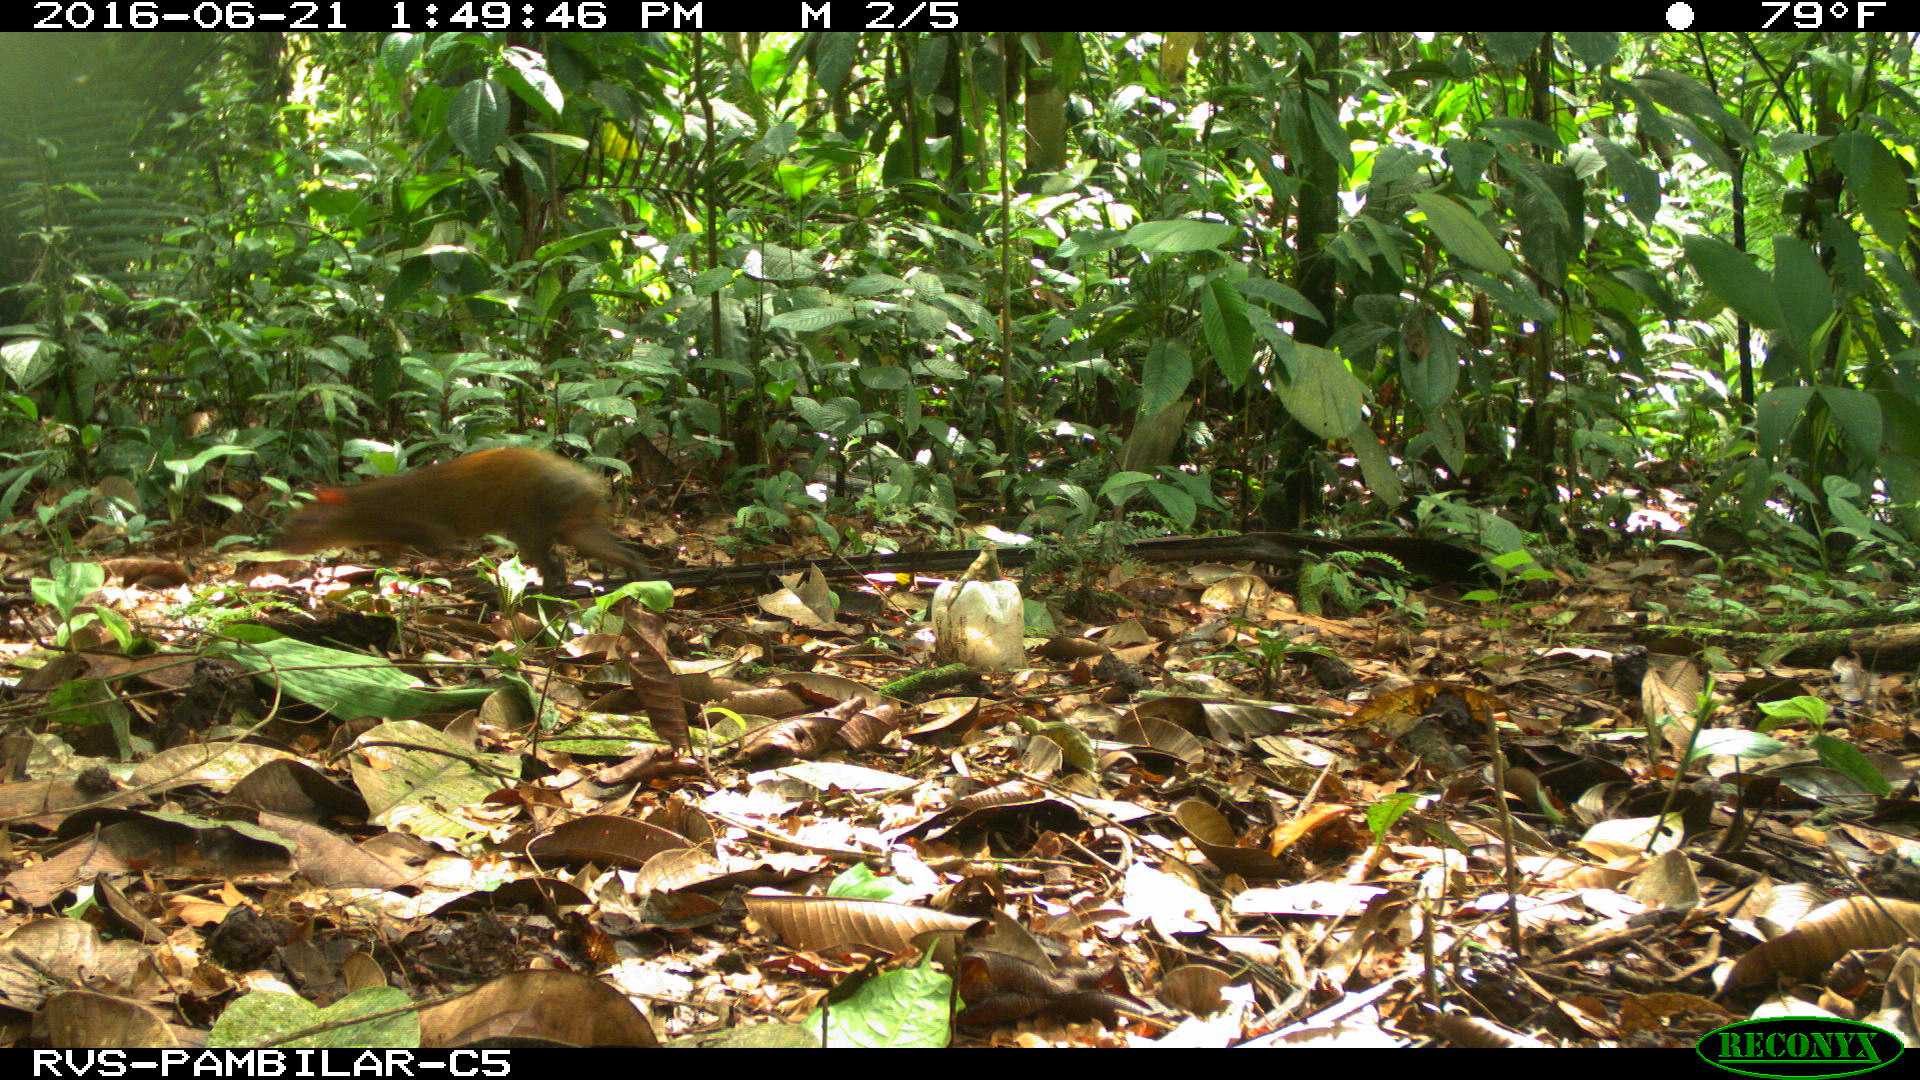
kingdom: Animalia
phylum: Chordata
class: Mammalia
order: Rodentia
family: Dasyproctidae
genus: Dasyprocta
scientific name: Dasyprocta punctata
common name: Central american agouti
